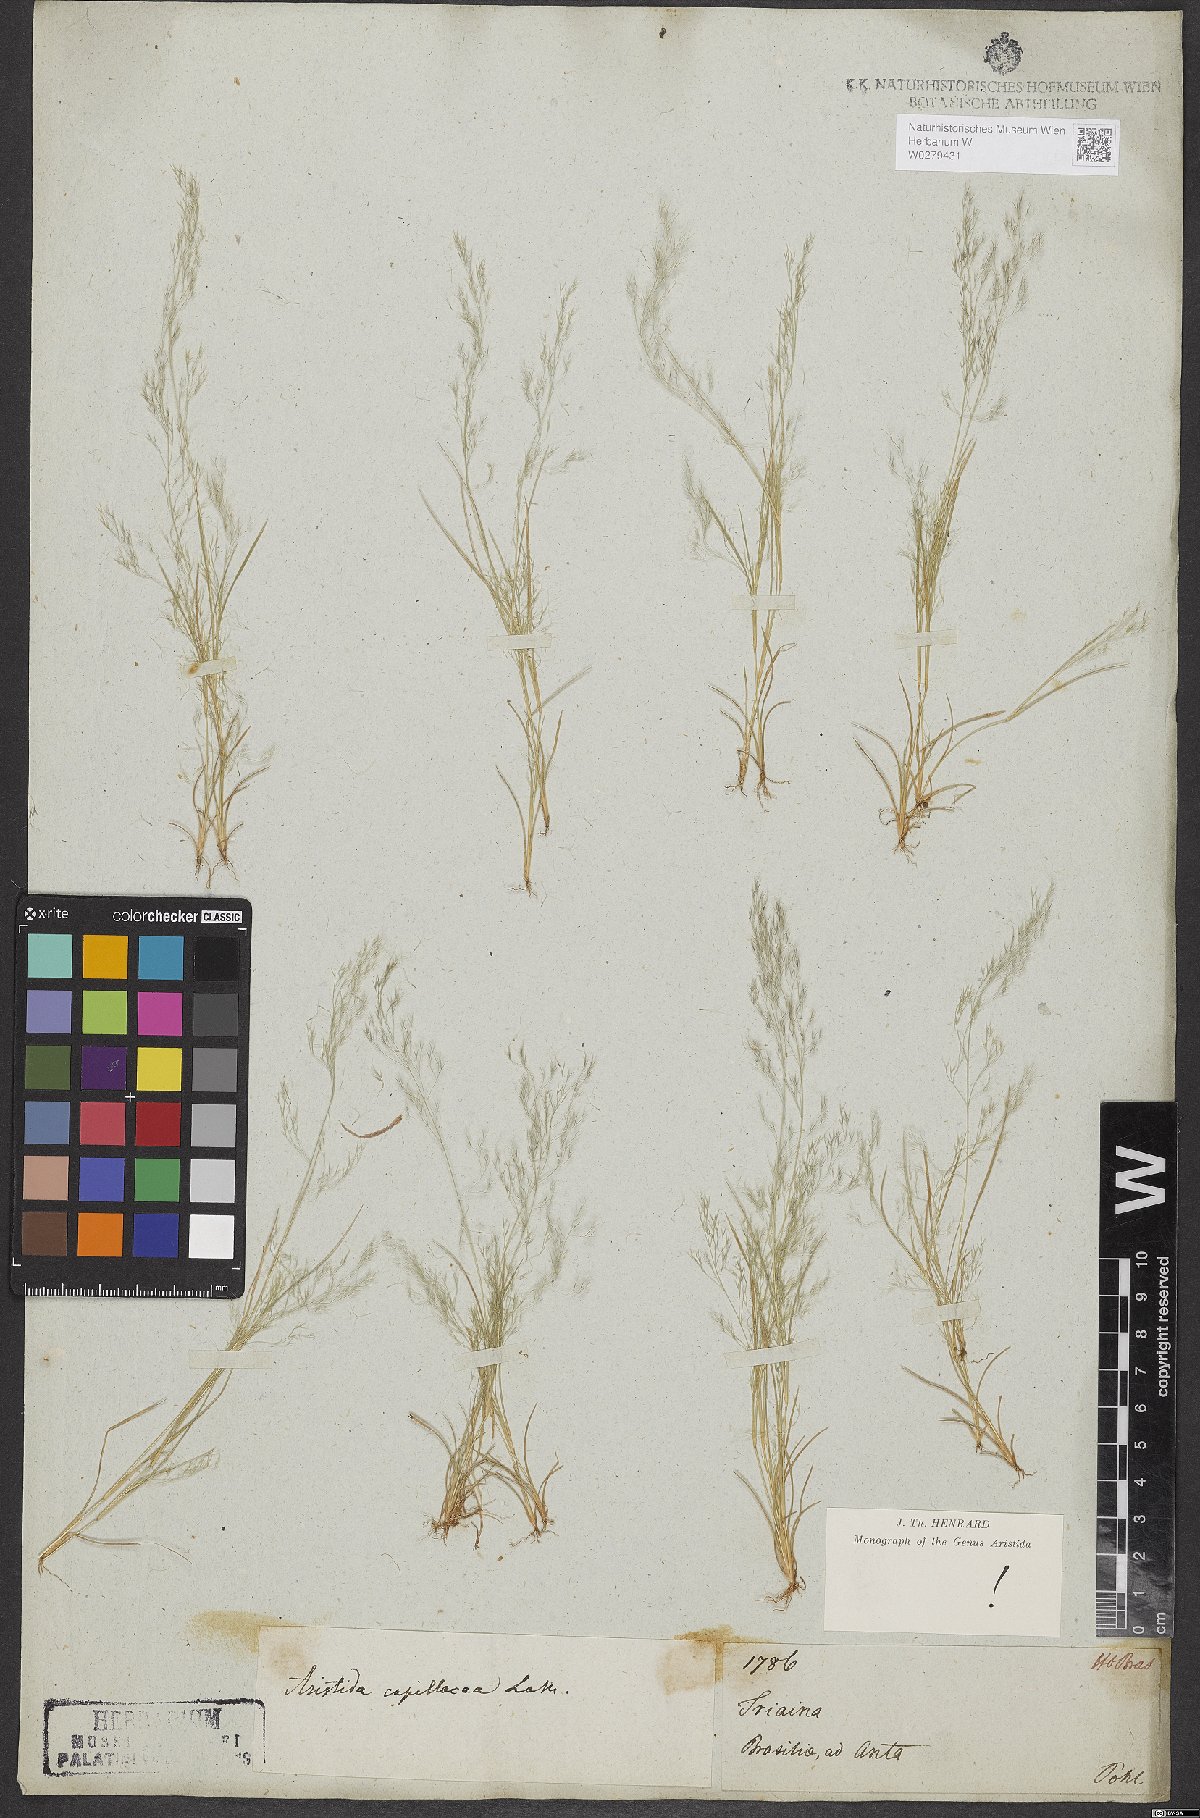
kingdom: Plantae
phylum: Tracheophyta
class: Liliopsida
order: Poales
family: Poaceae
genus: Aristida
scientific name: Aristida capillacea
